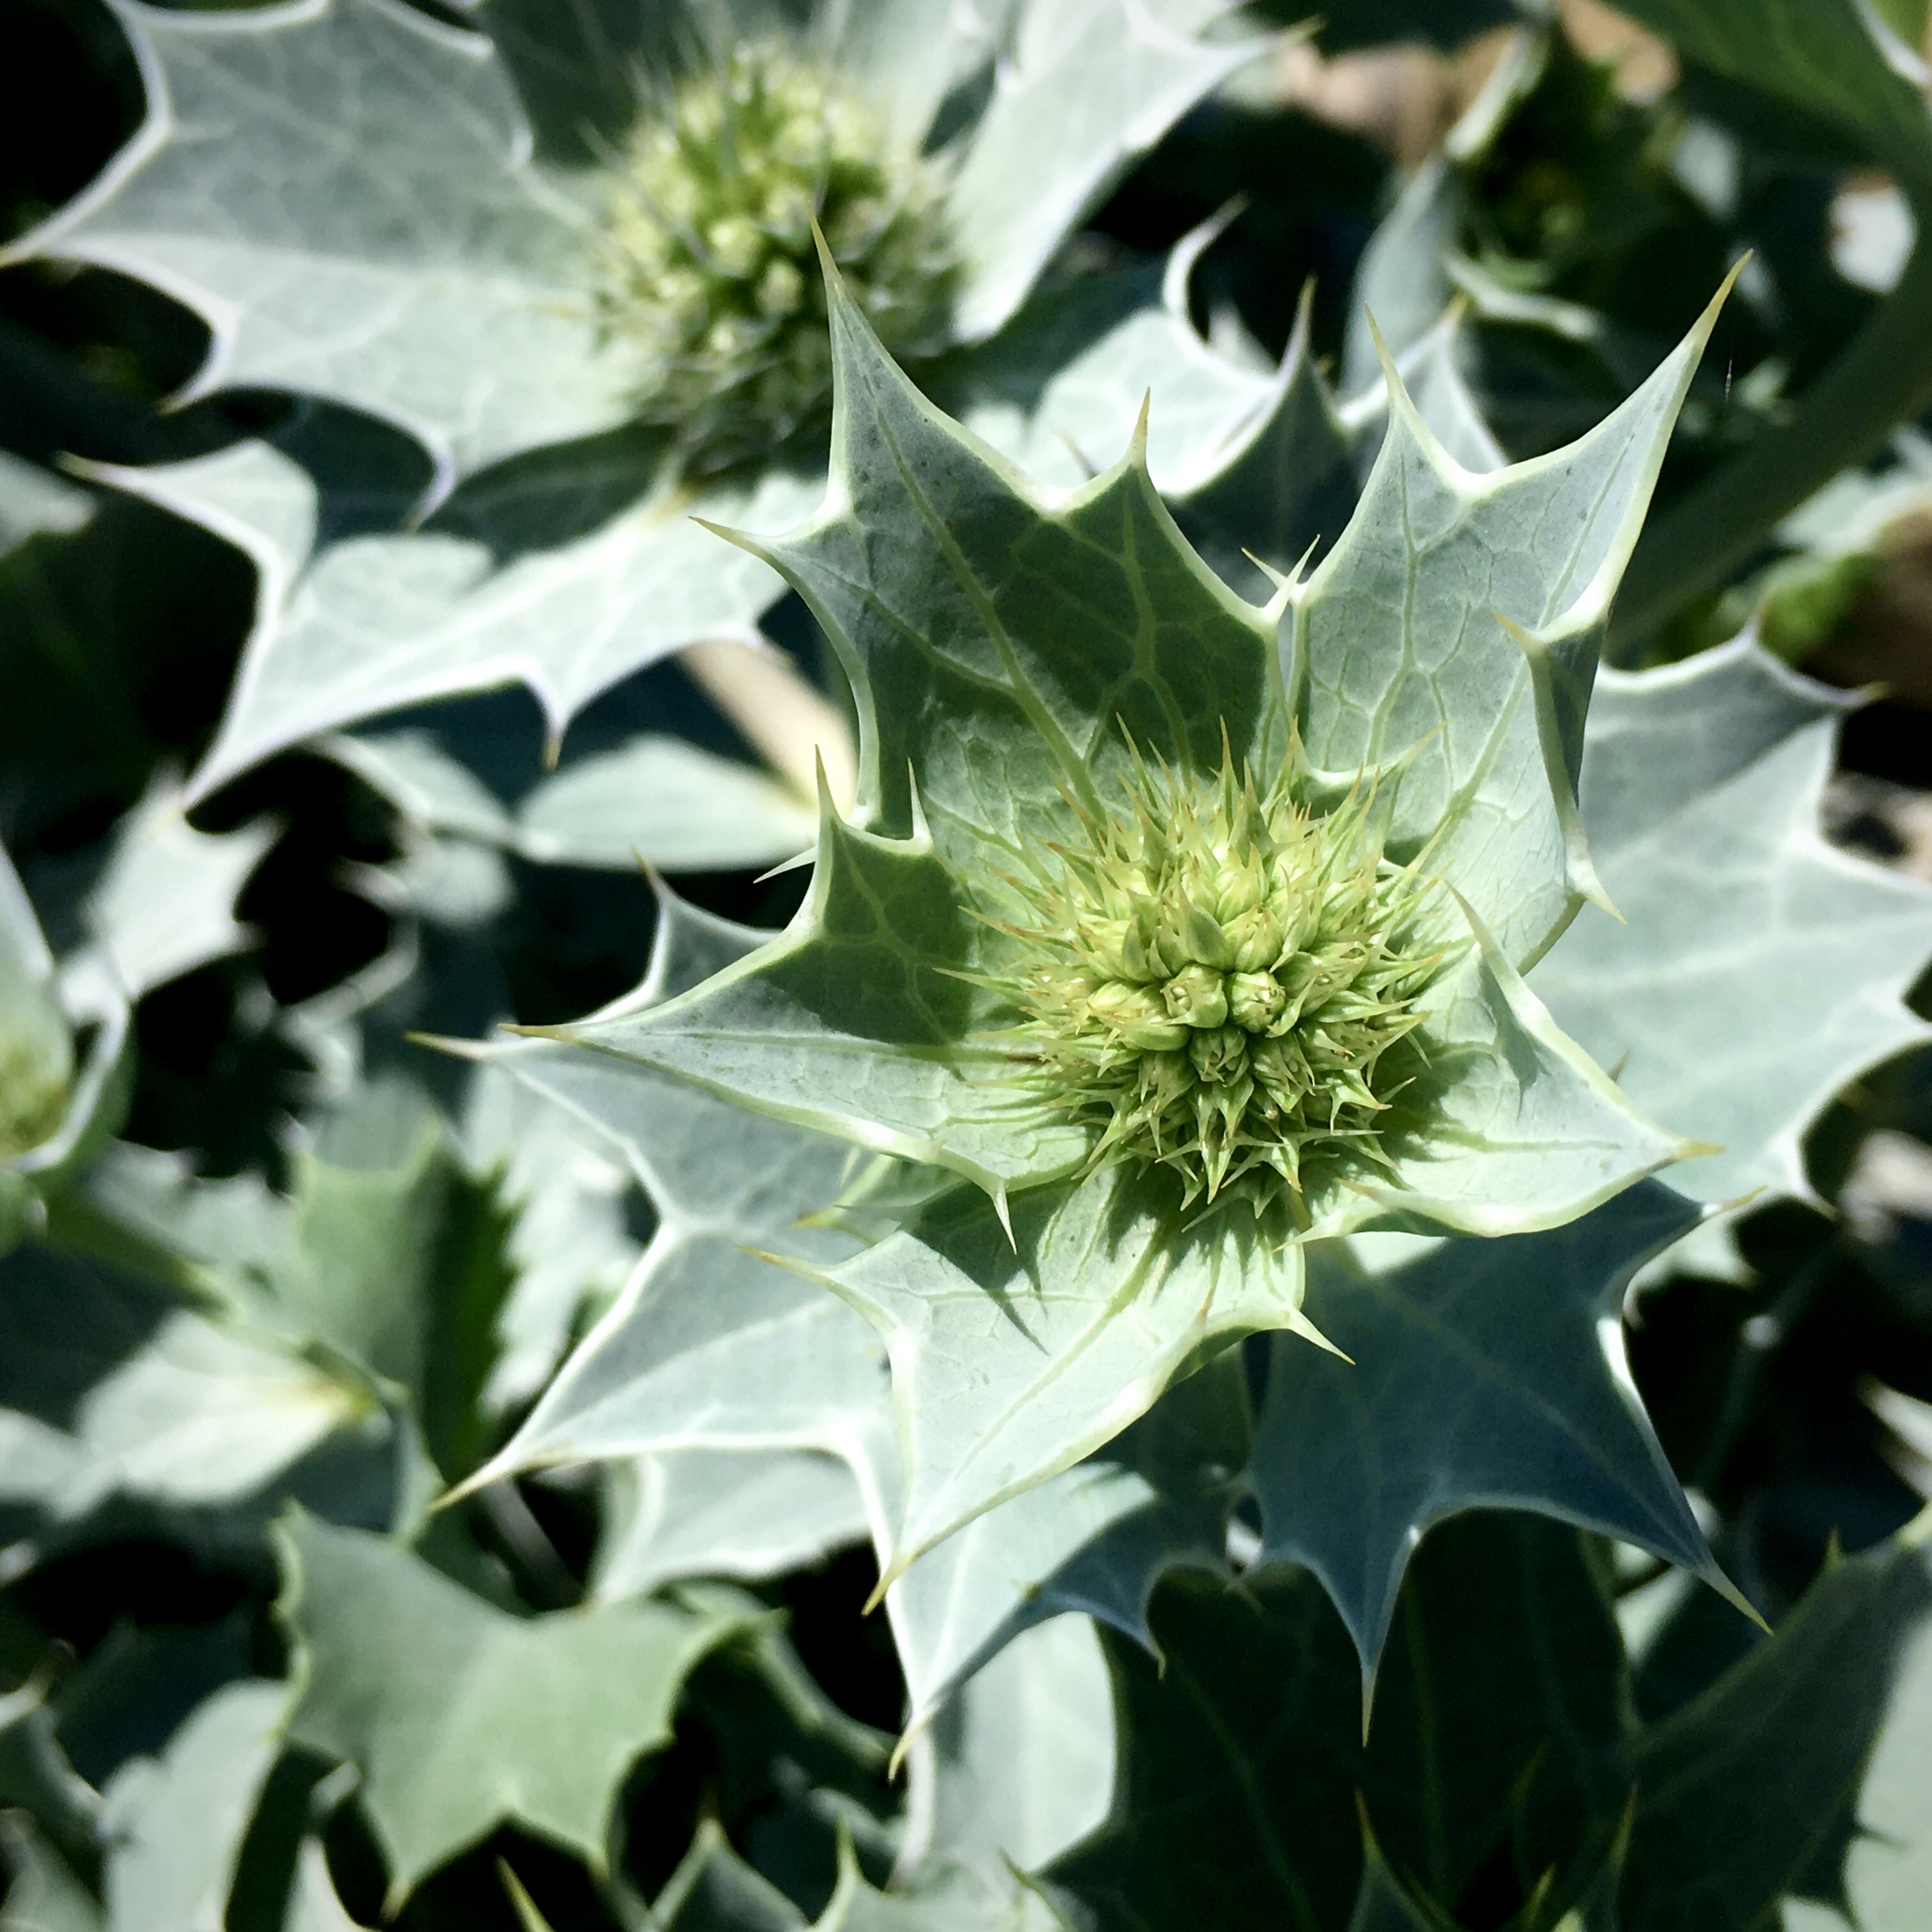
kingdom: Plantae
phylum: Tracheophyta
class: Magnoliopsida
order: Apiales
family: Apiaceae
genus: Eryngium
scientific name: Eryngium maritimum
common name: Strand-mandstro
